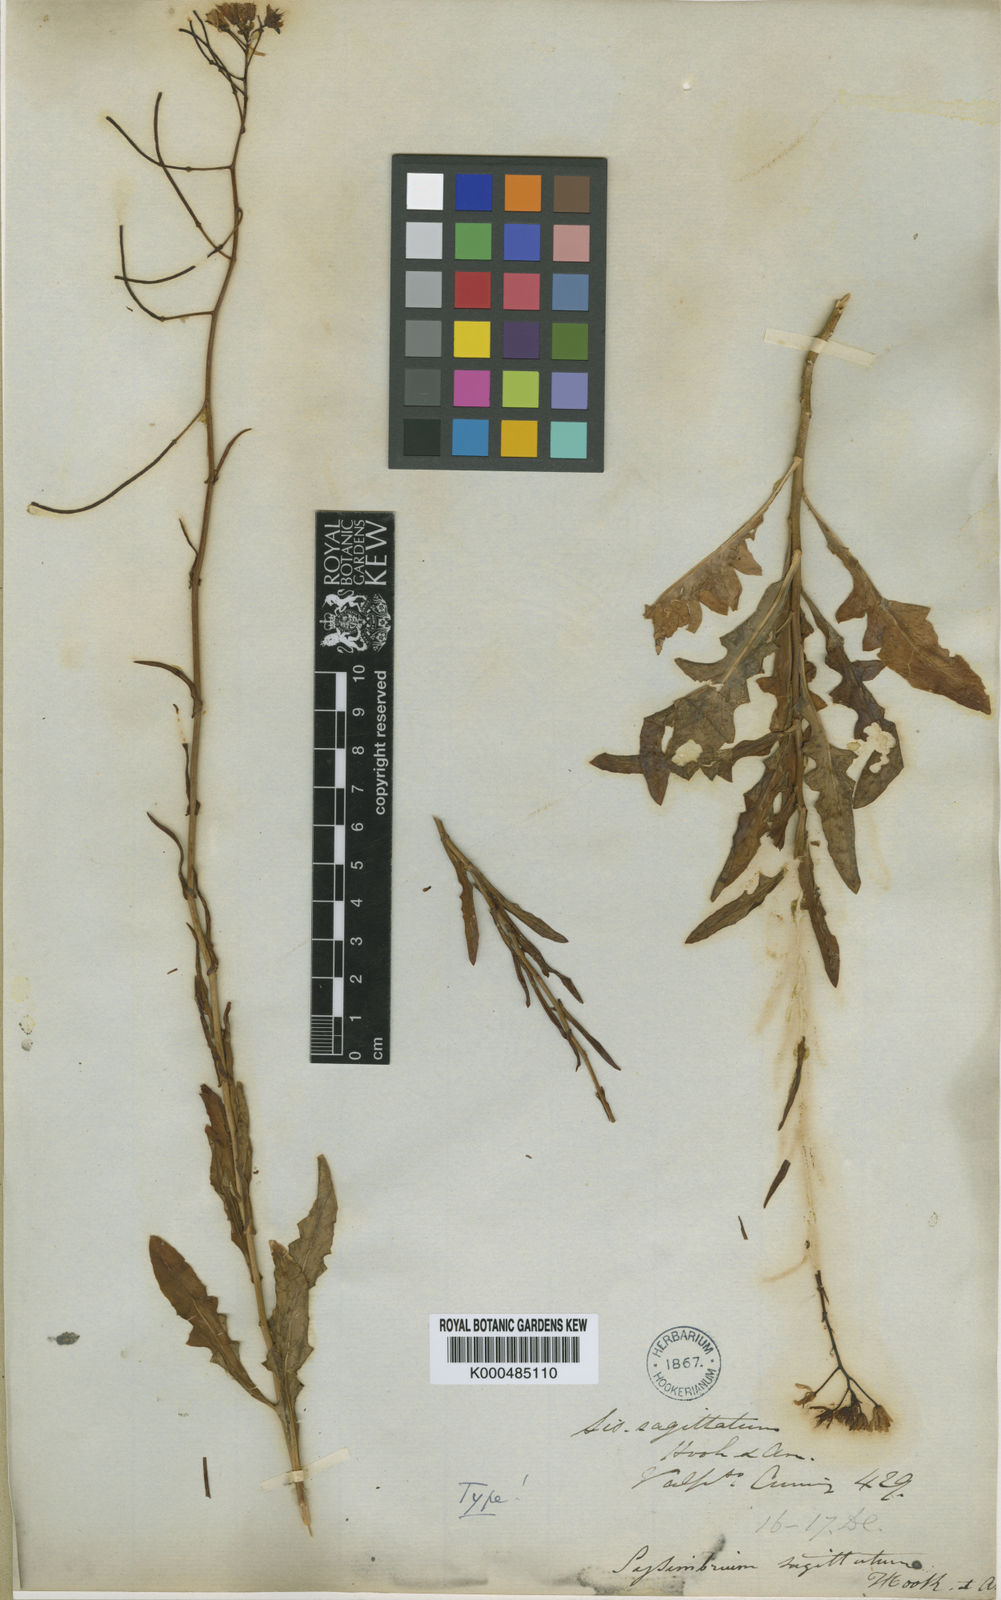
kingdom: Plantae
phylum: Tracheophyta
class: Magnoliopsida
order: Brassicales
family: Brassicaceae
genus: Sisymbrium
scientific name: Sisymbrium
